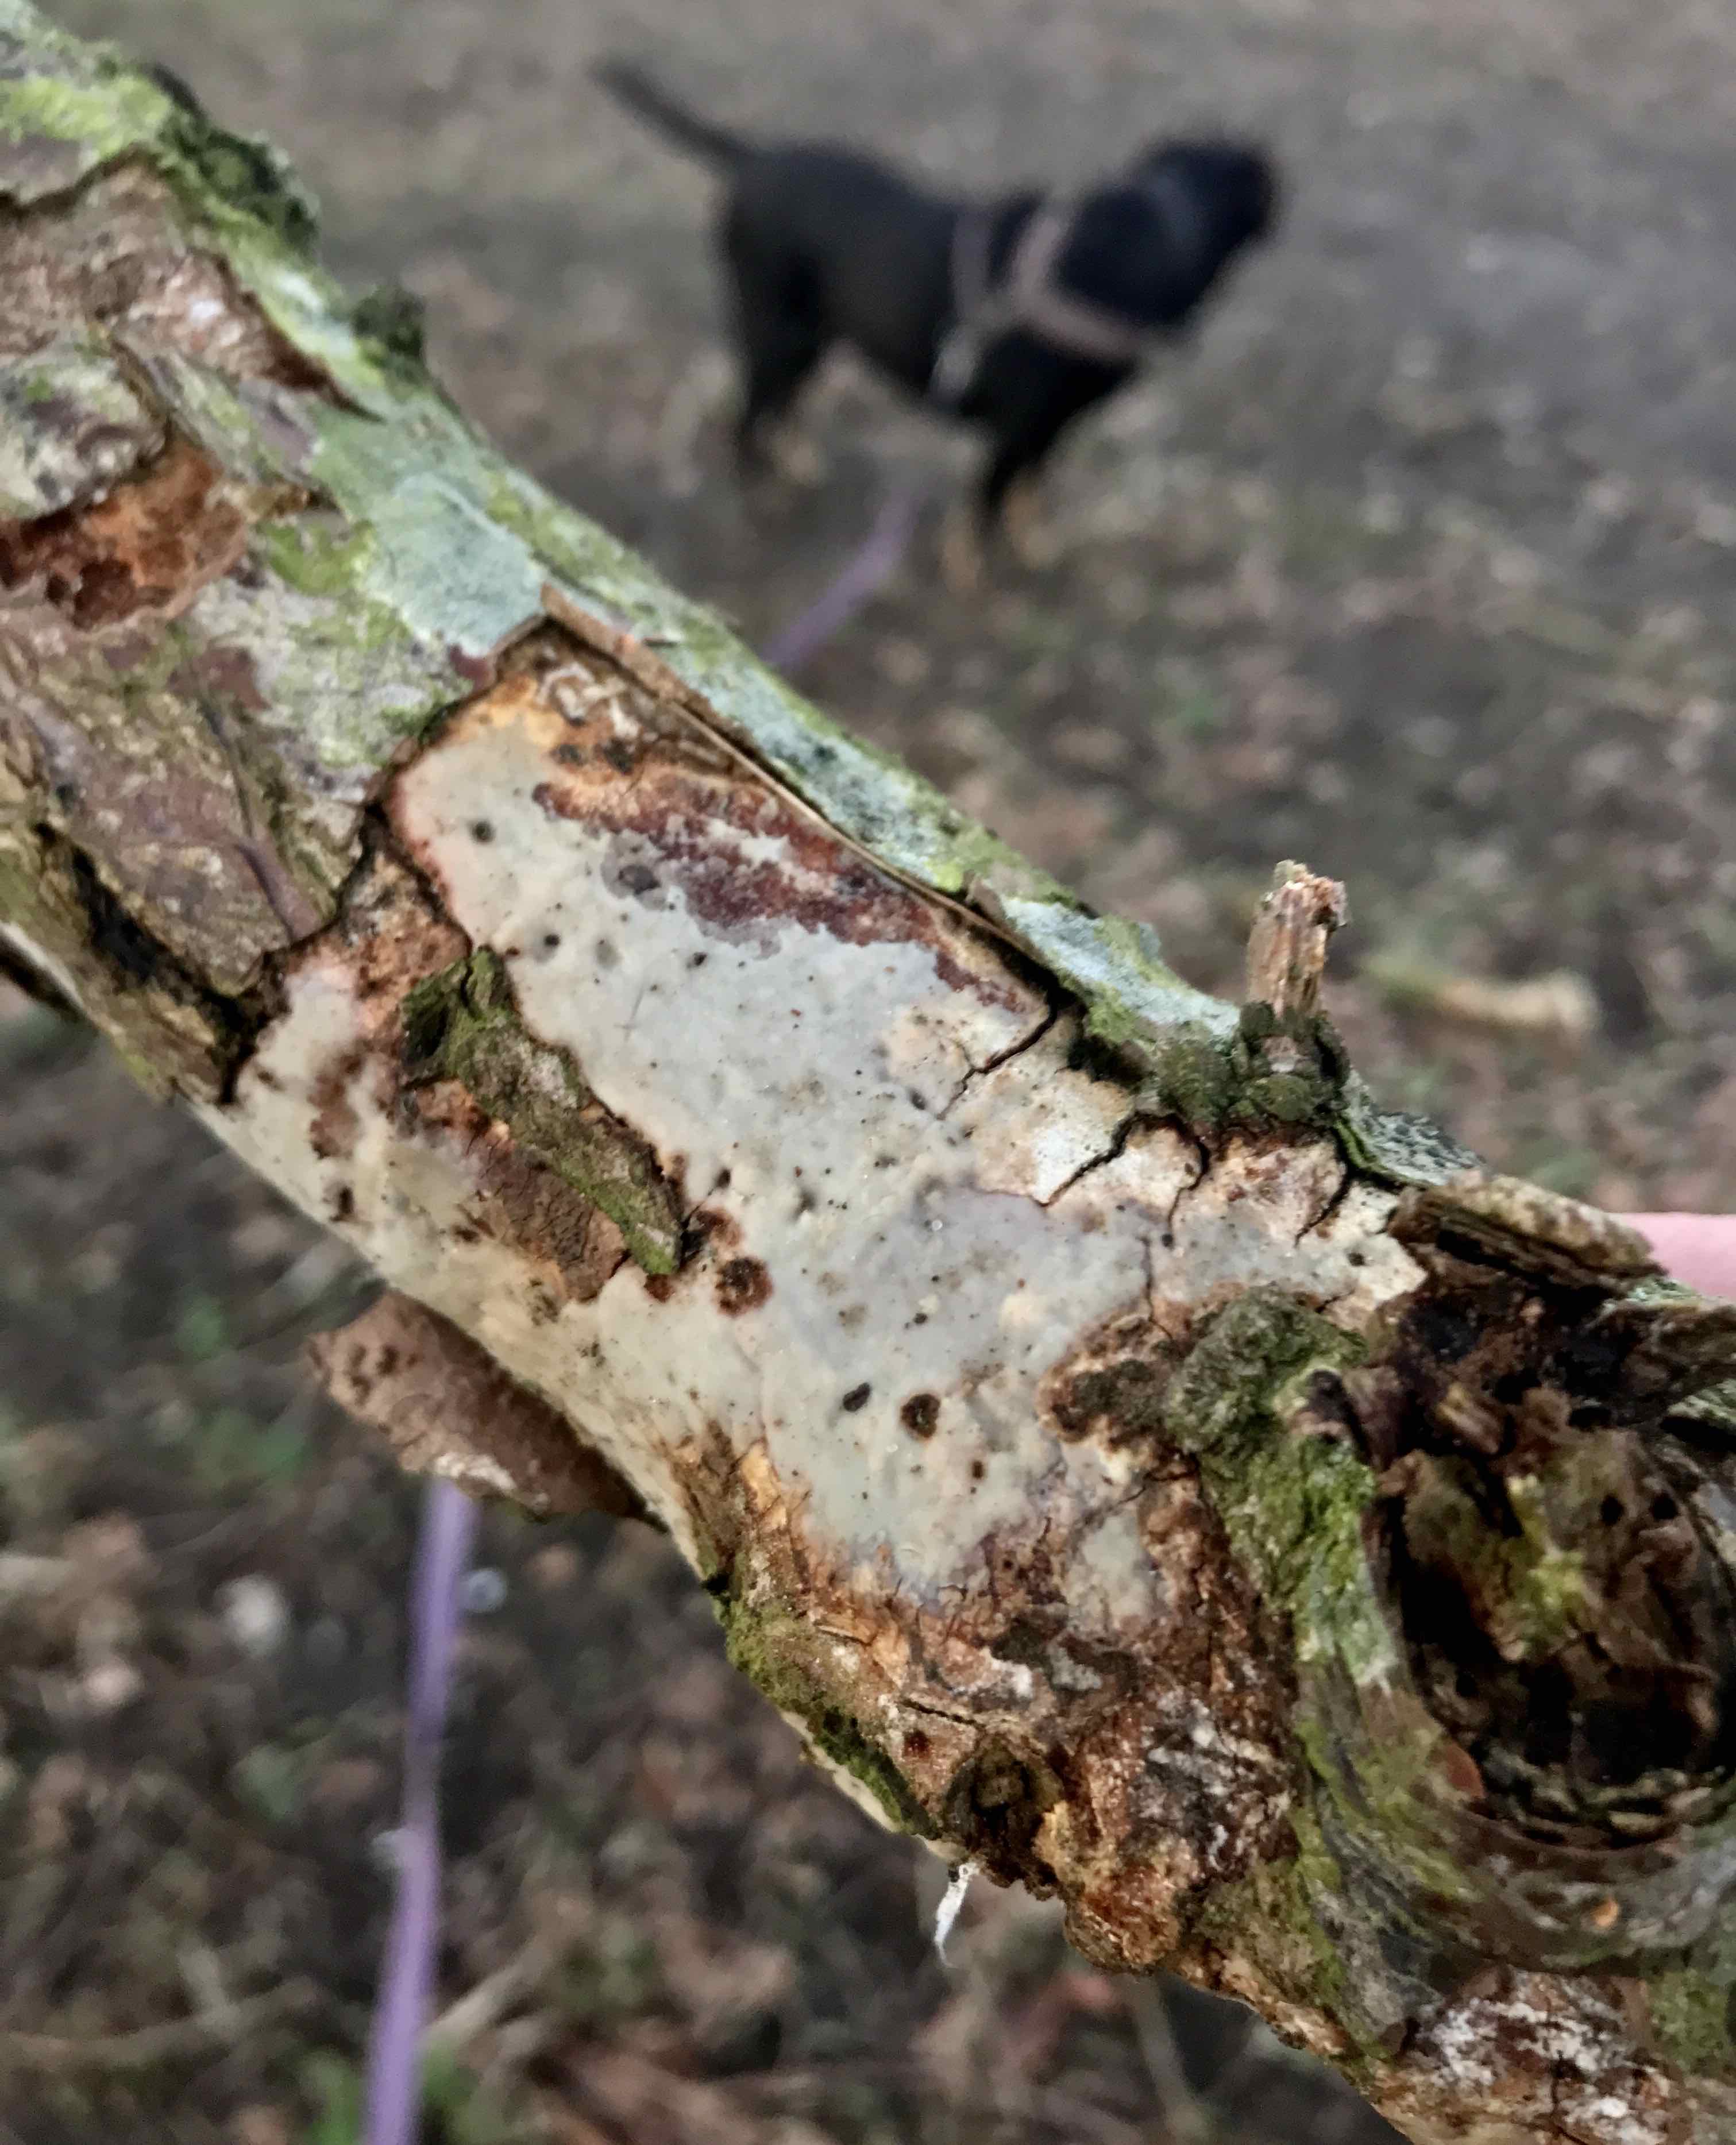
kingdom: Fungi
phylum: Basidiomycota
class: Agaricomycetes
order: Corticiales
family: Vuilleminiaceae
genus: Vuilleminia
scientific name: Vuilleminia comedens
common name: almindelig barksprænger
